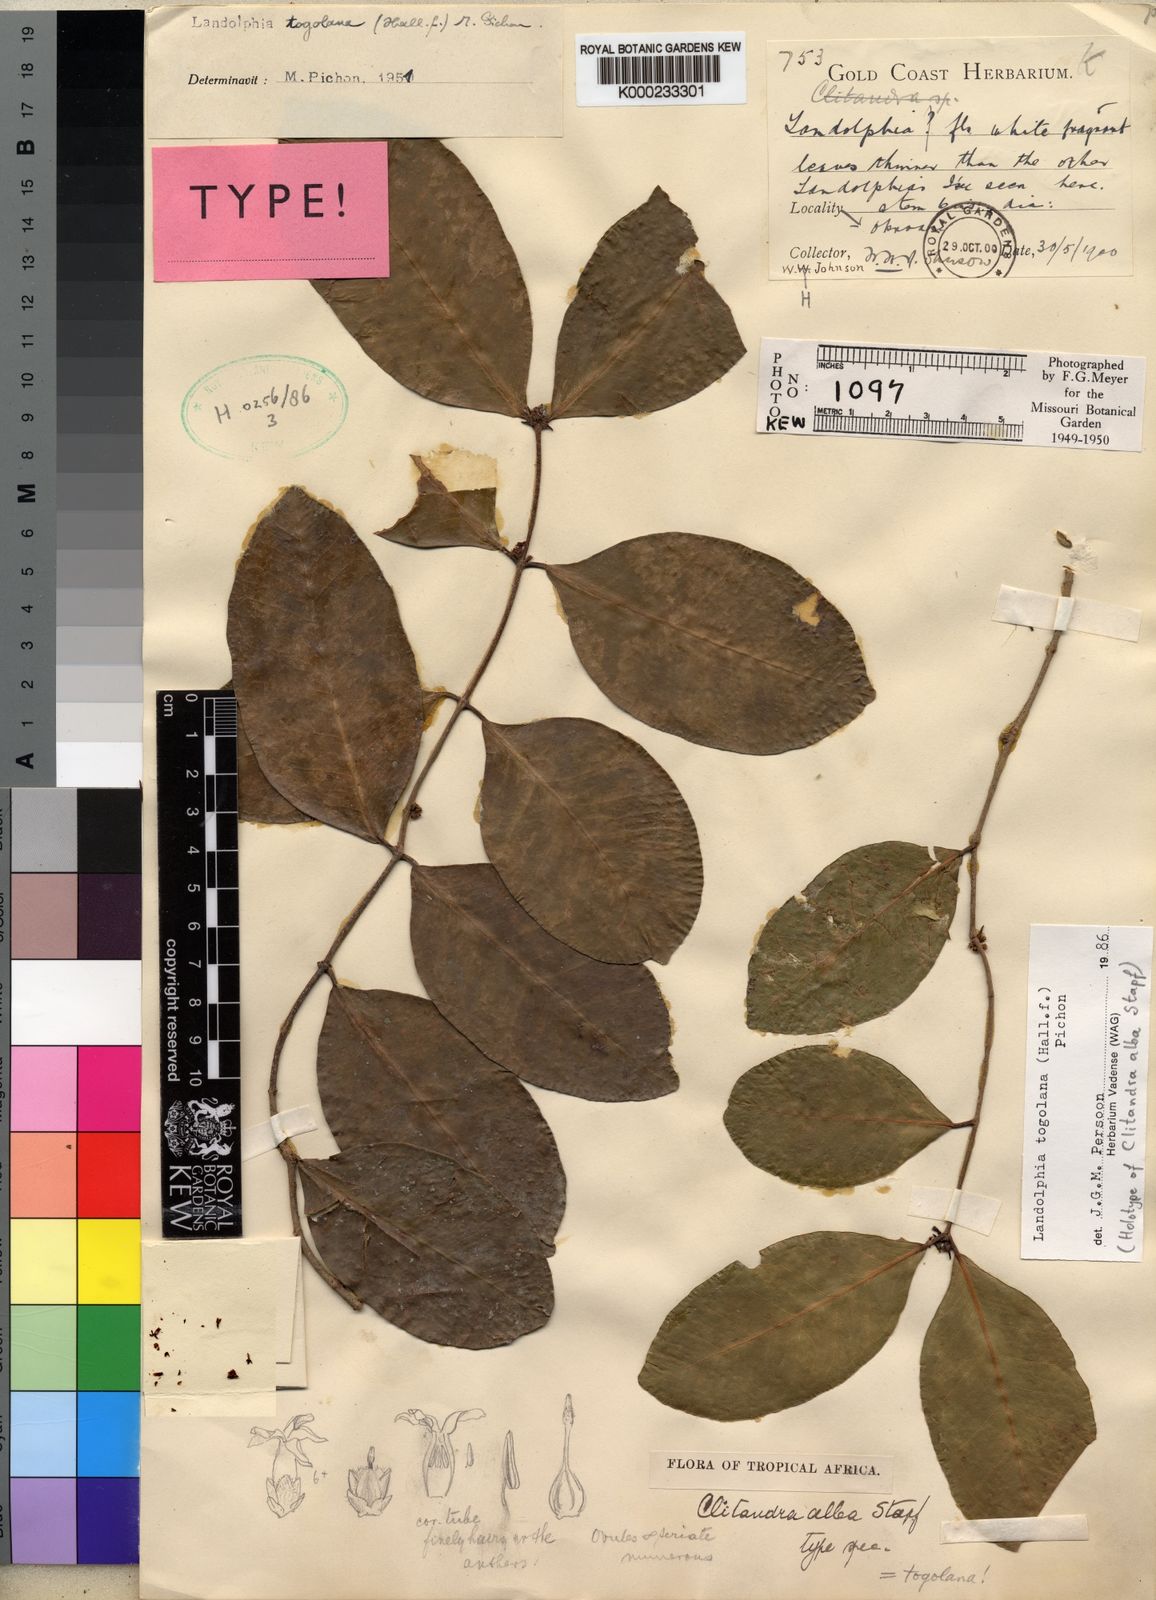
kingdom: Plantae
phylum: Tracheophyta
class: Magnoliopsida
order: Gentianales
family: Apocynaceae
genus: Landolphia
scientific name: Landolphia togolana
